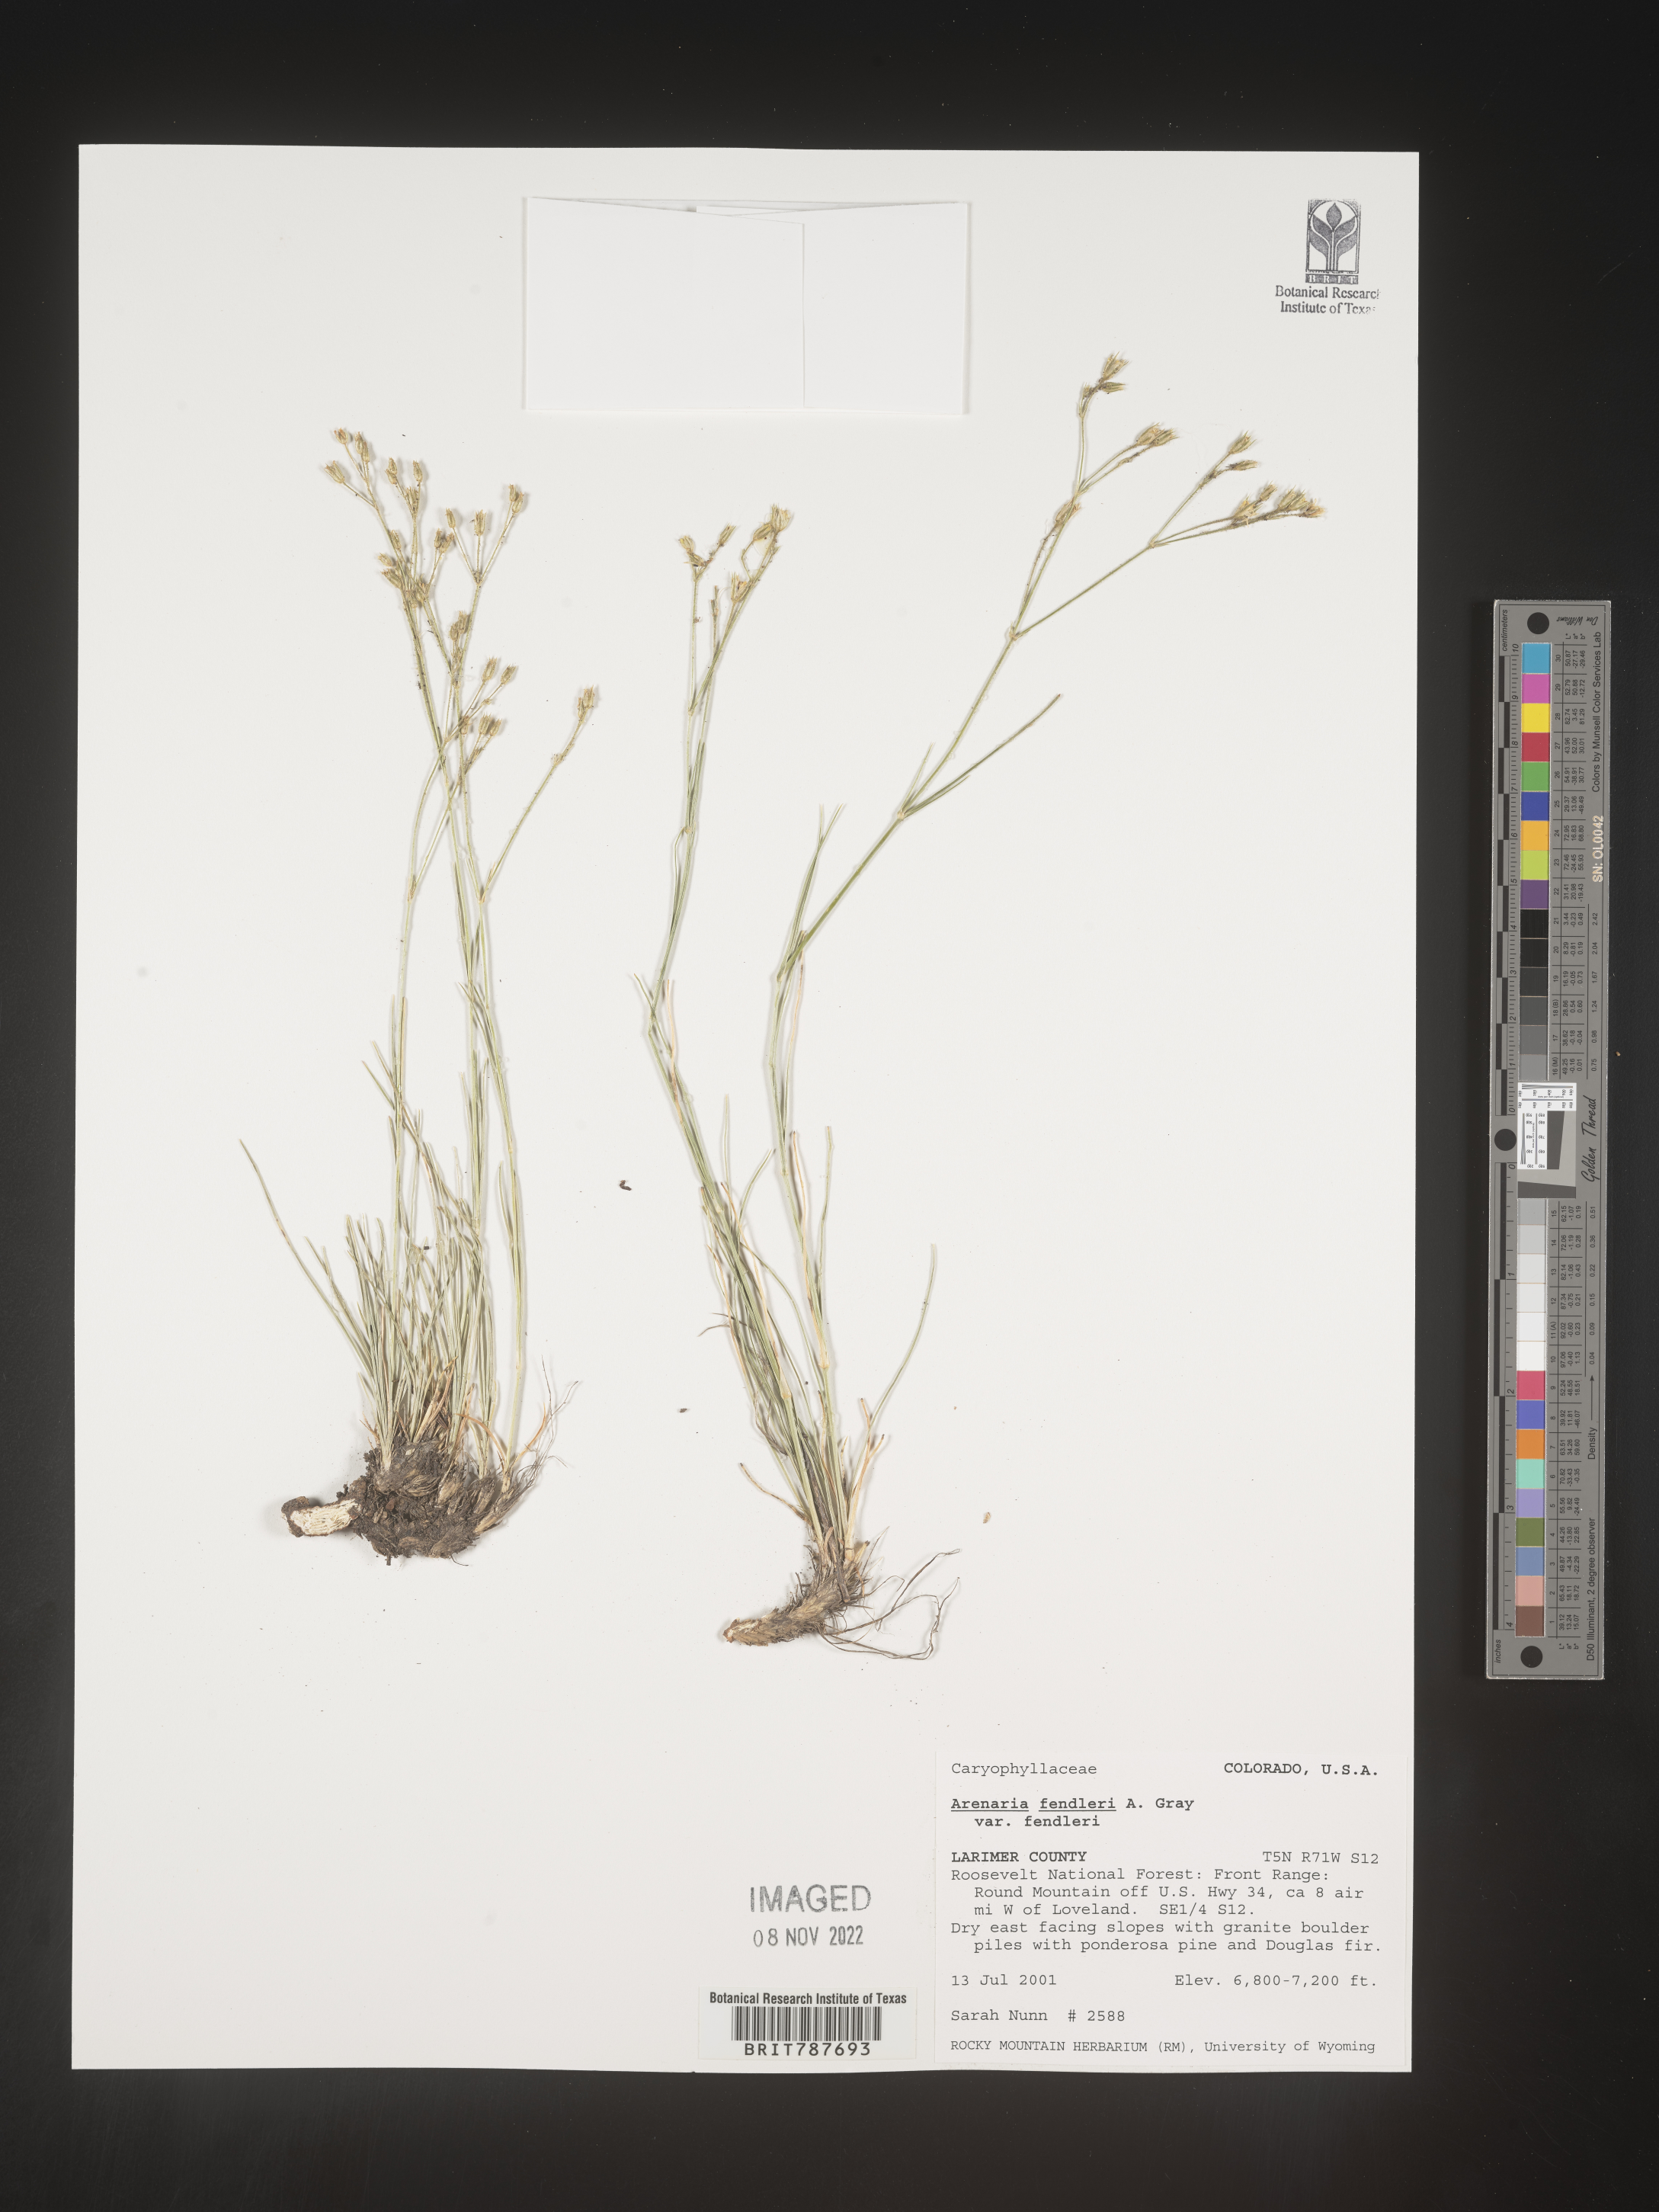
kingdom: Plantae
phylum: Tracheophyta
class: Magnoliopsida
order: Caryophyllales
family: Caryophyllaceae
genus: Arenaria
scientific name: Arenaria
